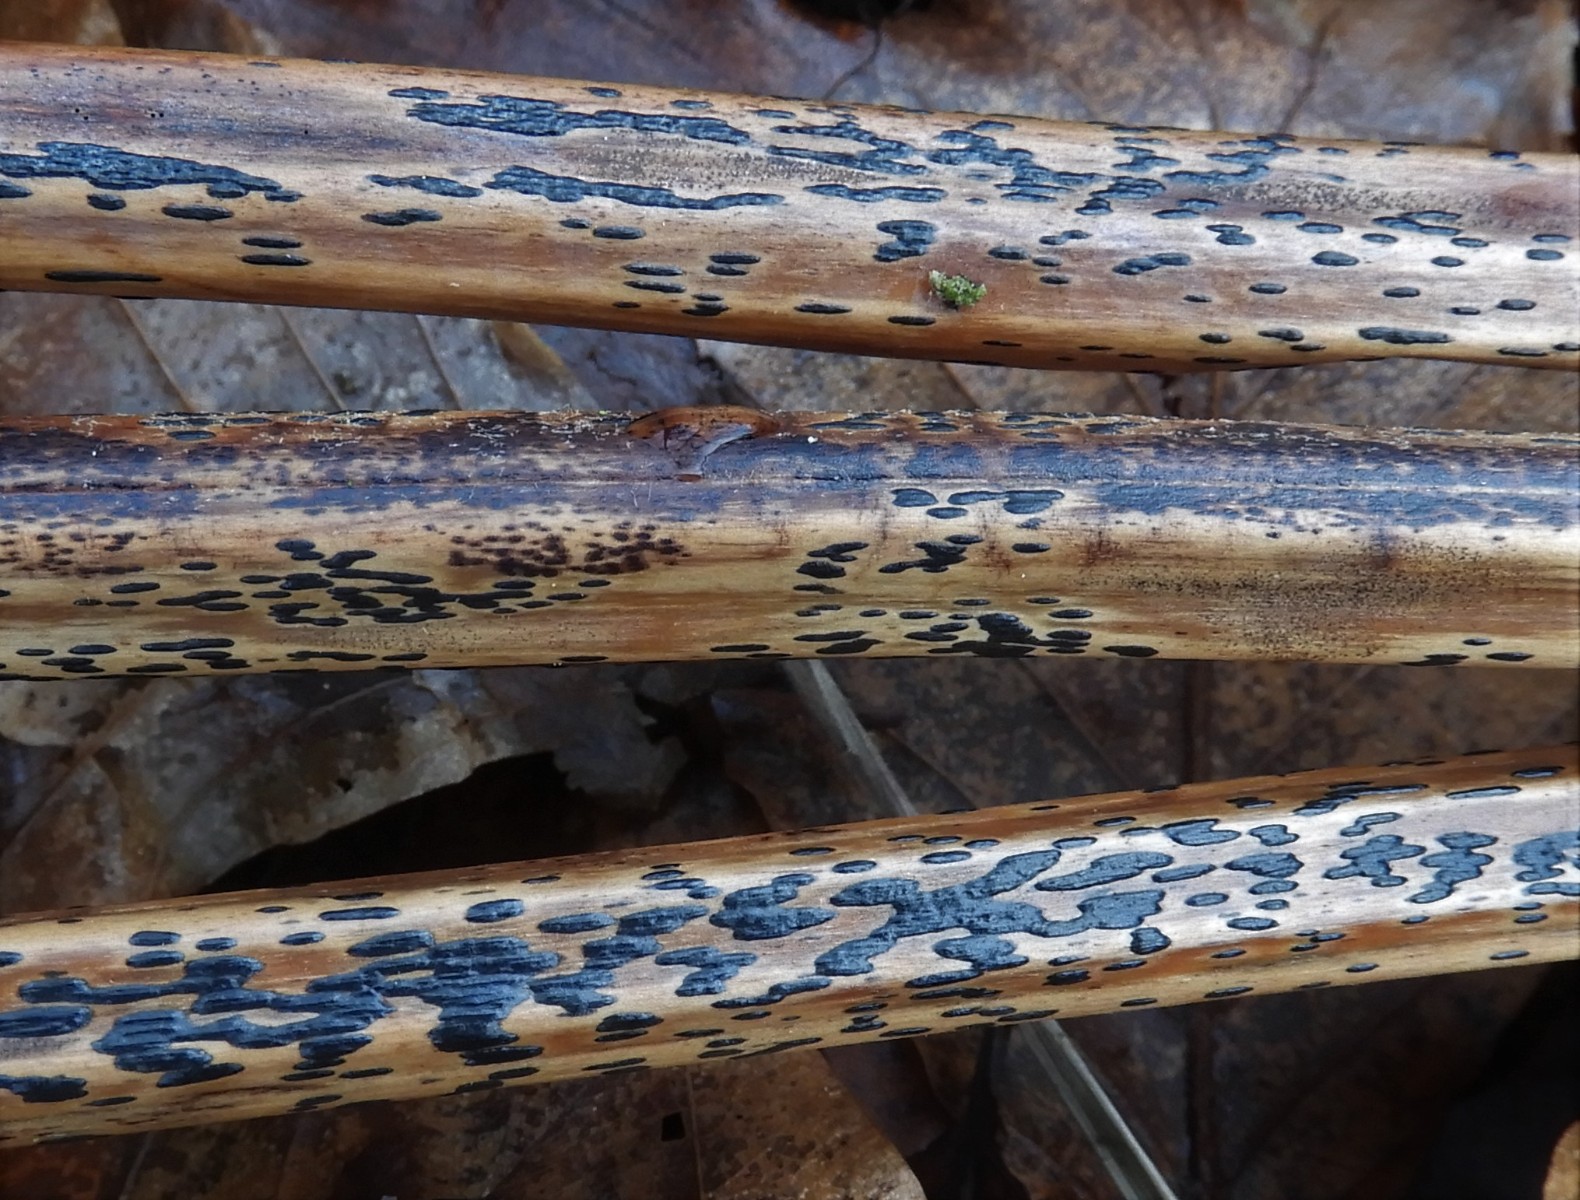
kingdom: Fungi
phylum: Ascomycota
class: Dothideomycetes
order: Pleosporales
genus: Rhopographus
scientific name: Rhopographus filicinus
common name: Bracken map
